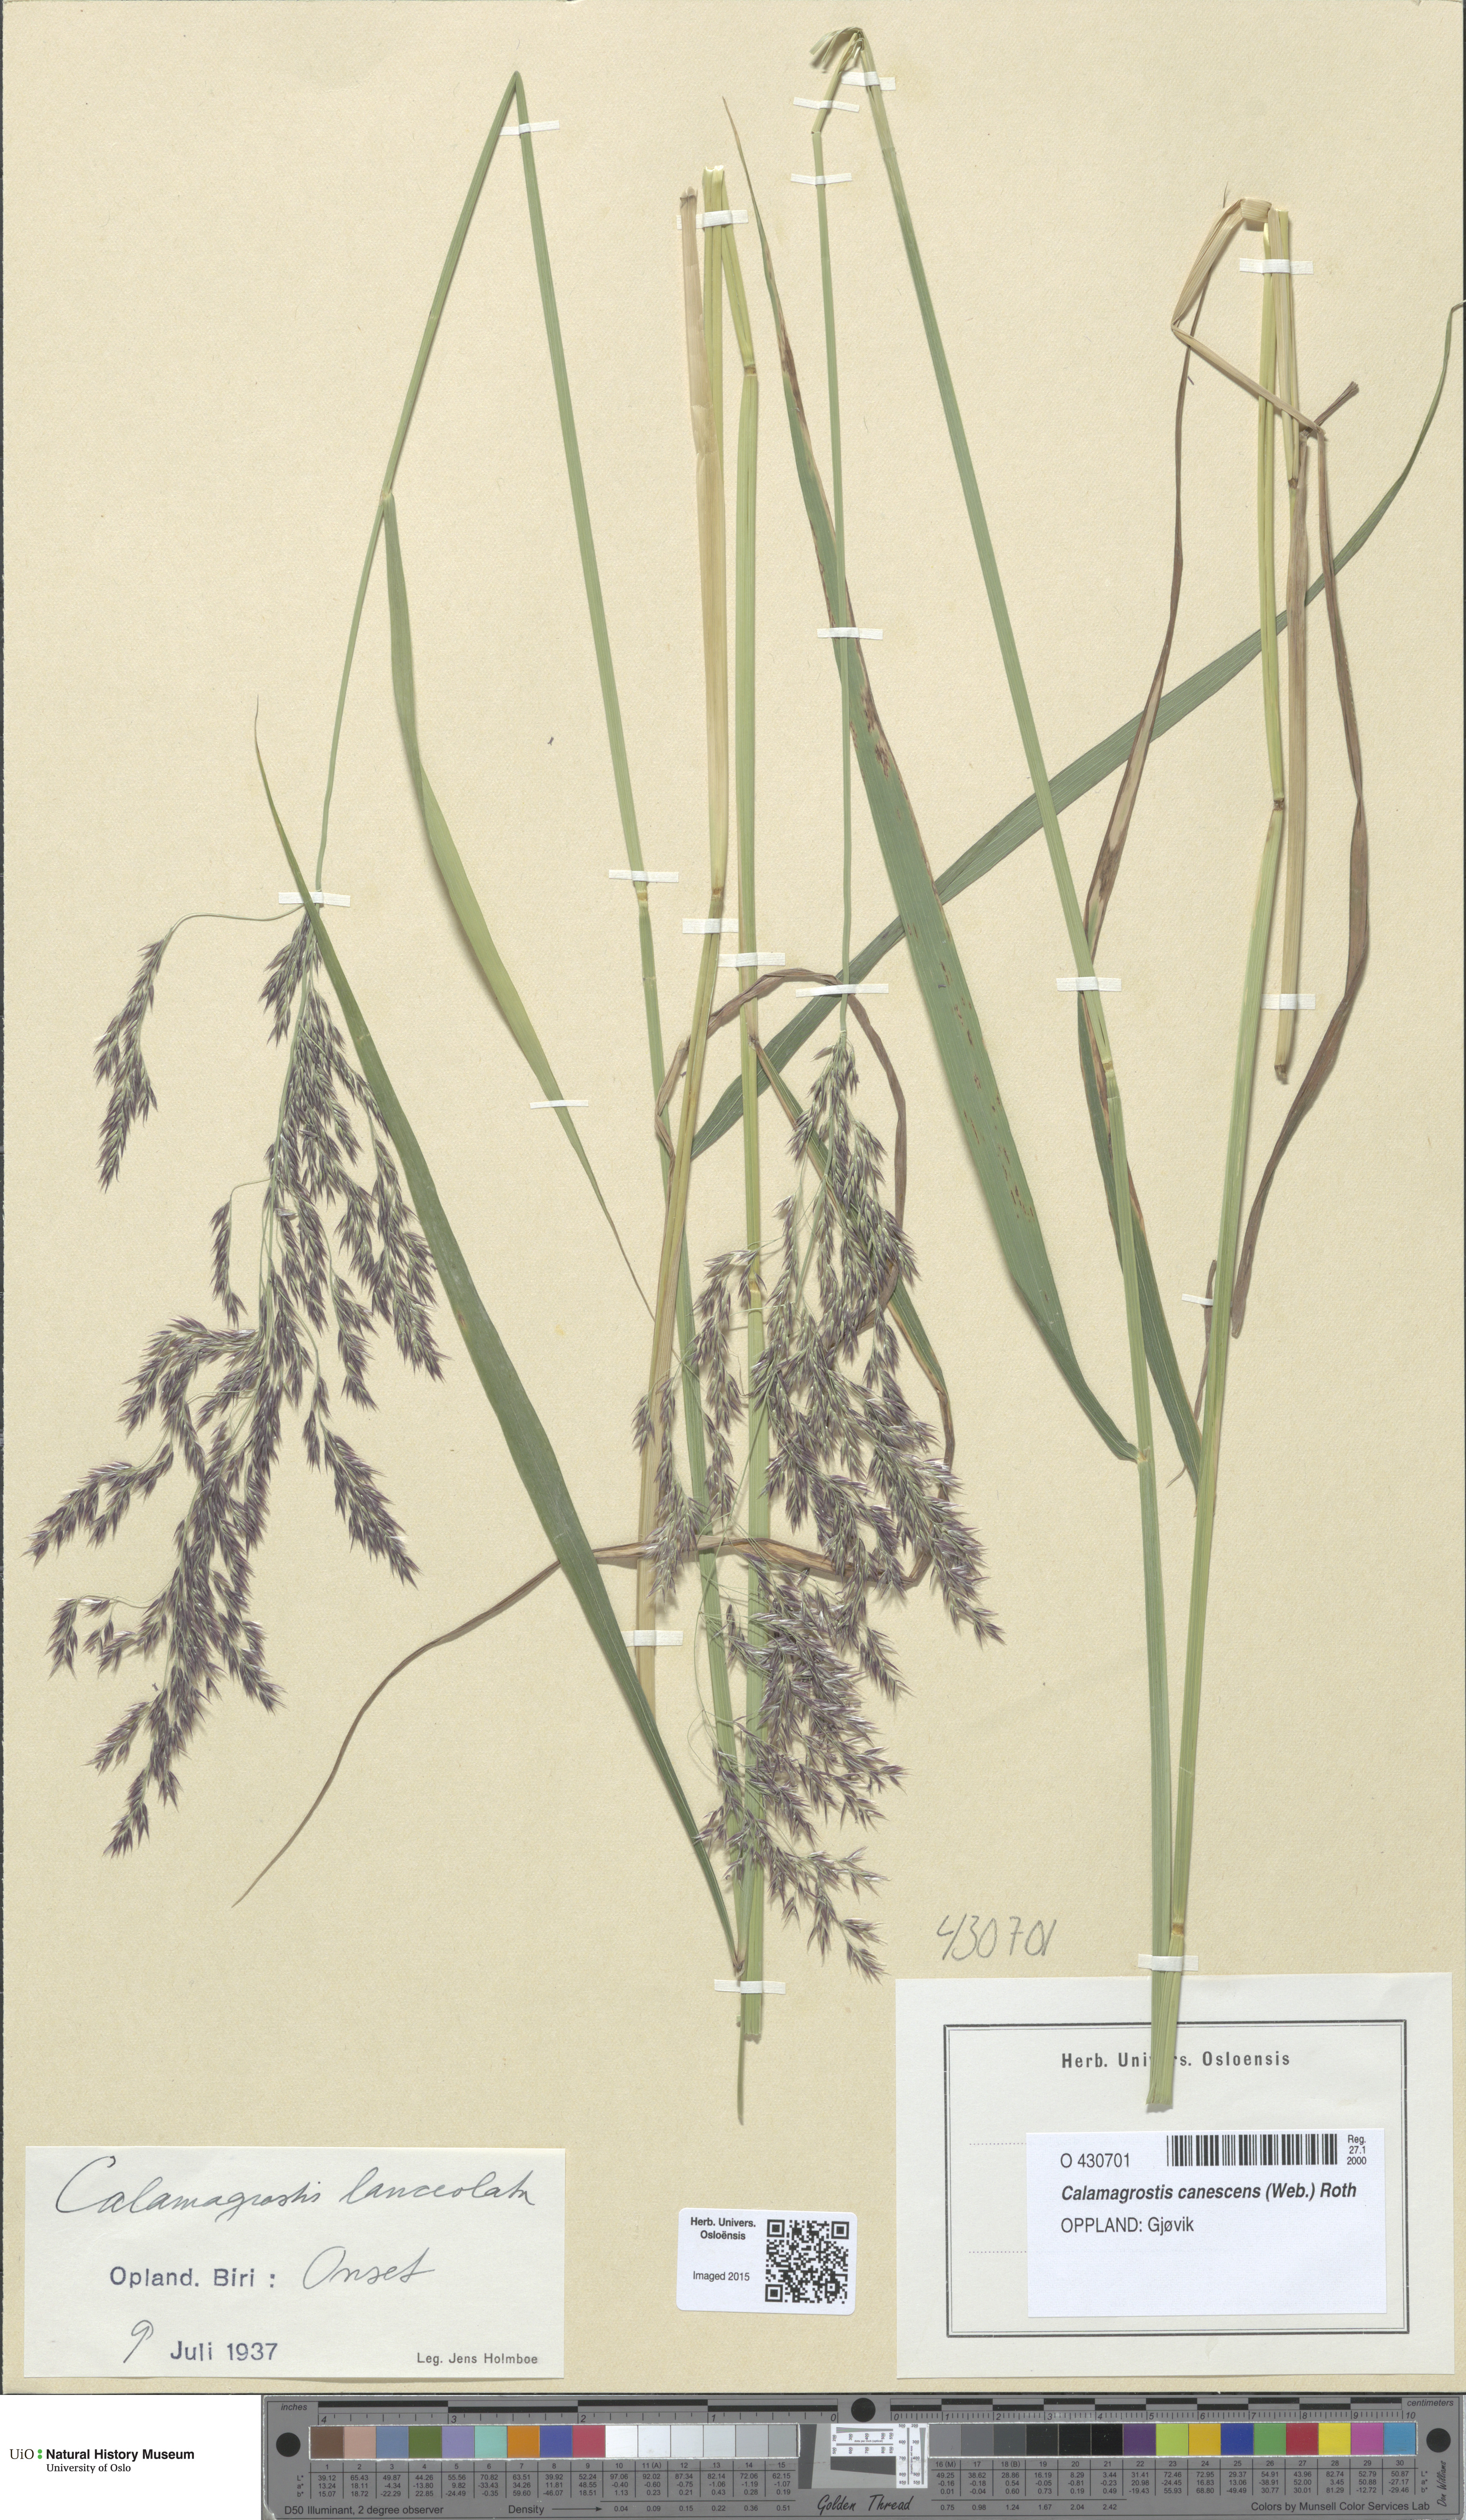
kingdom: Plantae
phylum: Tracheophyta
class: Liliopsida
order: Poales
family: Poaceae
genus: Calamagrostis
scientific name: Calamagrostis canescens
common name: Purple small-reed
